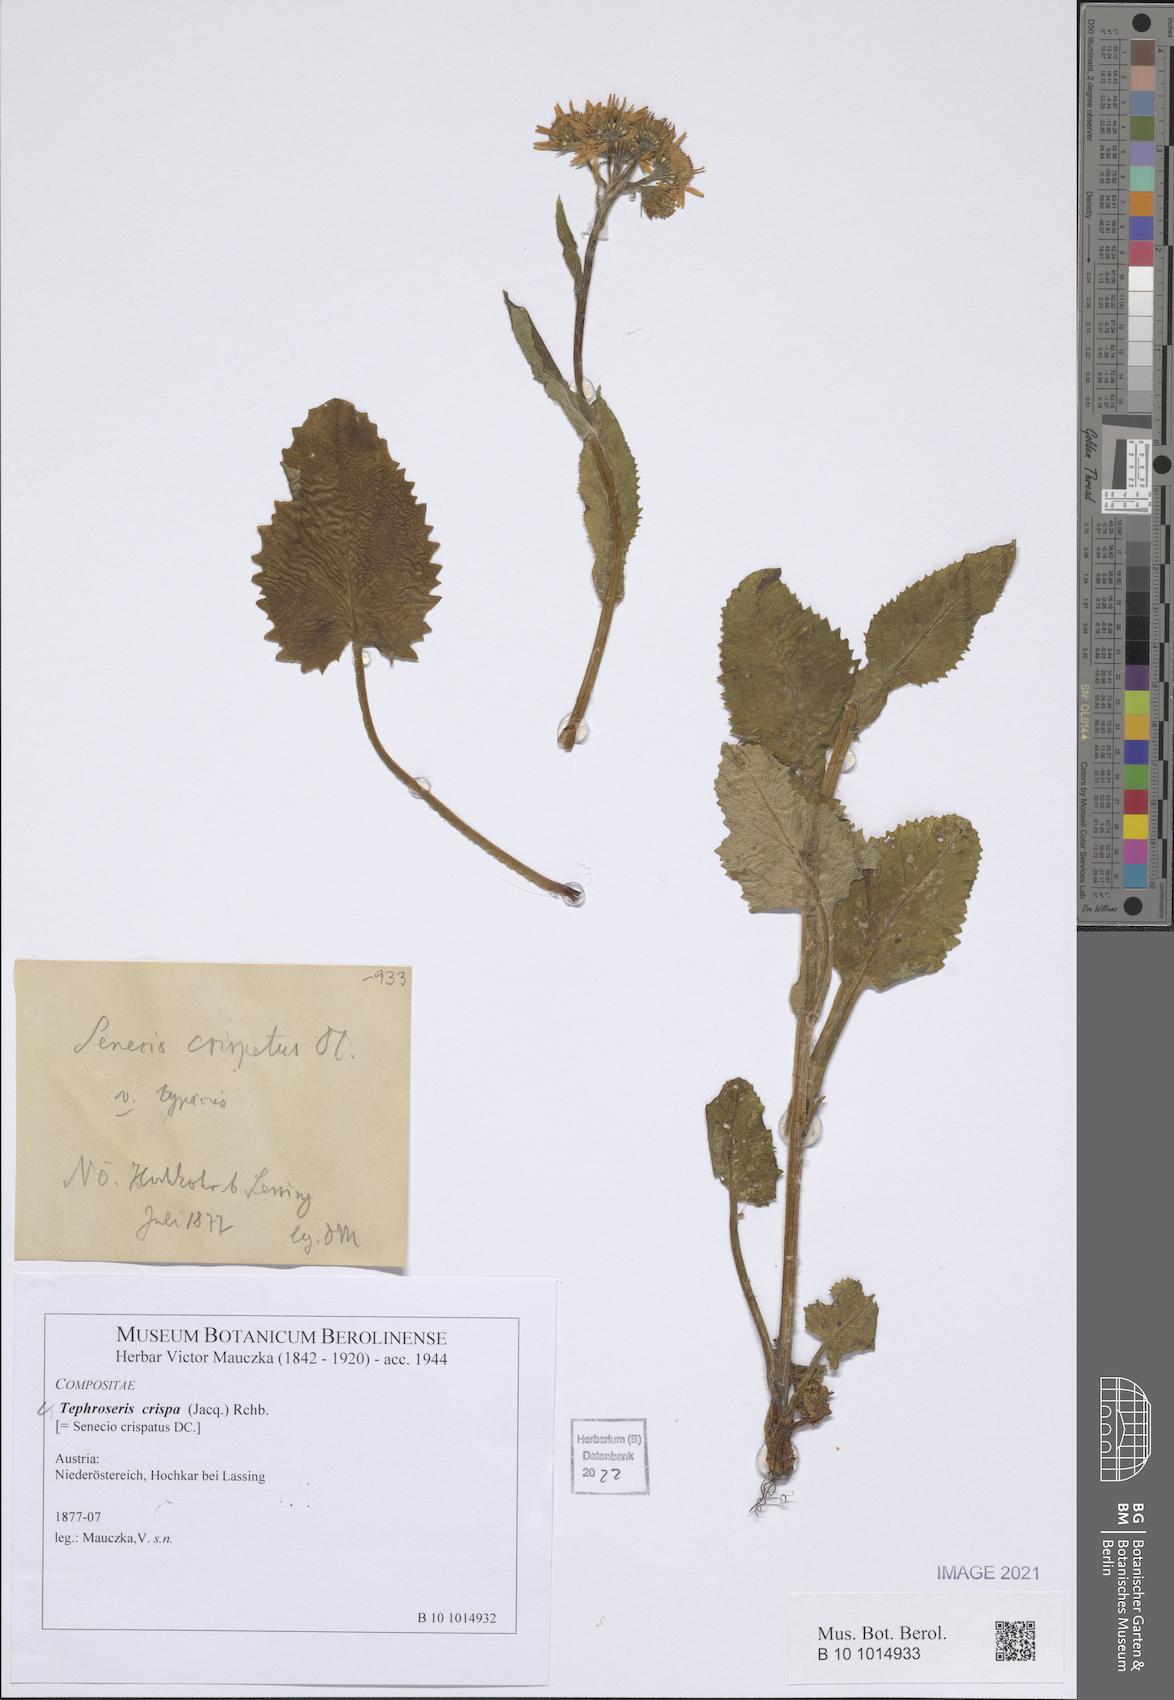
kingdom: Plantae
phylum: Tracheophyta
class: Magnoliopsida
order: Asterales
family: Asteraceae
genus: Tephroseris
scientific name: Tephroseris crispa
